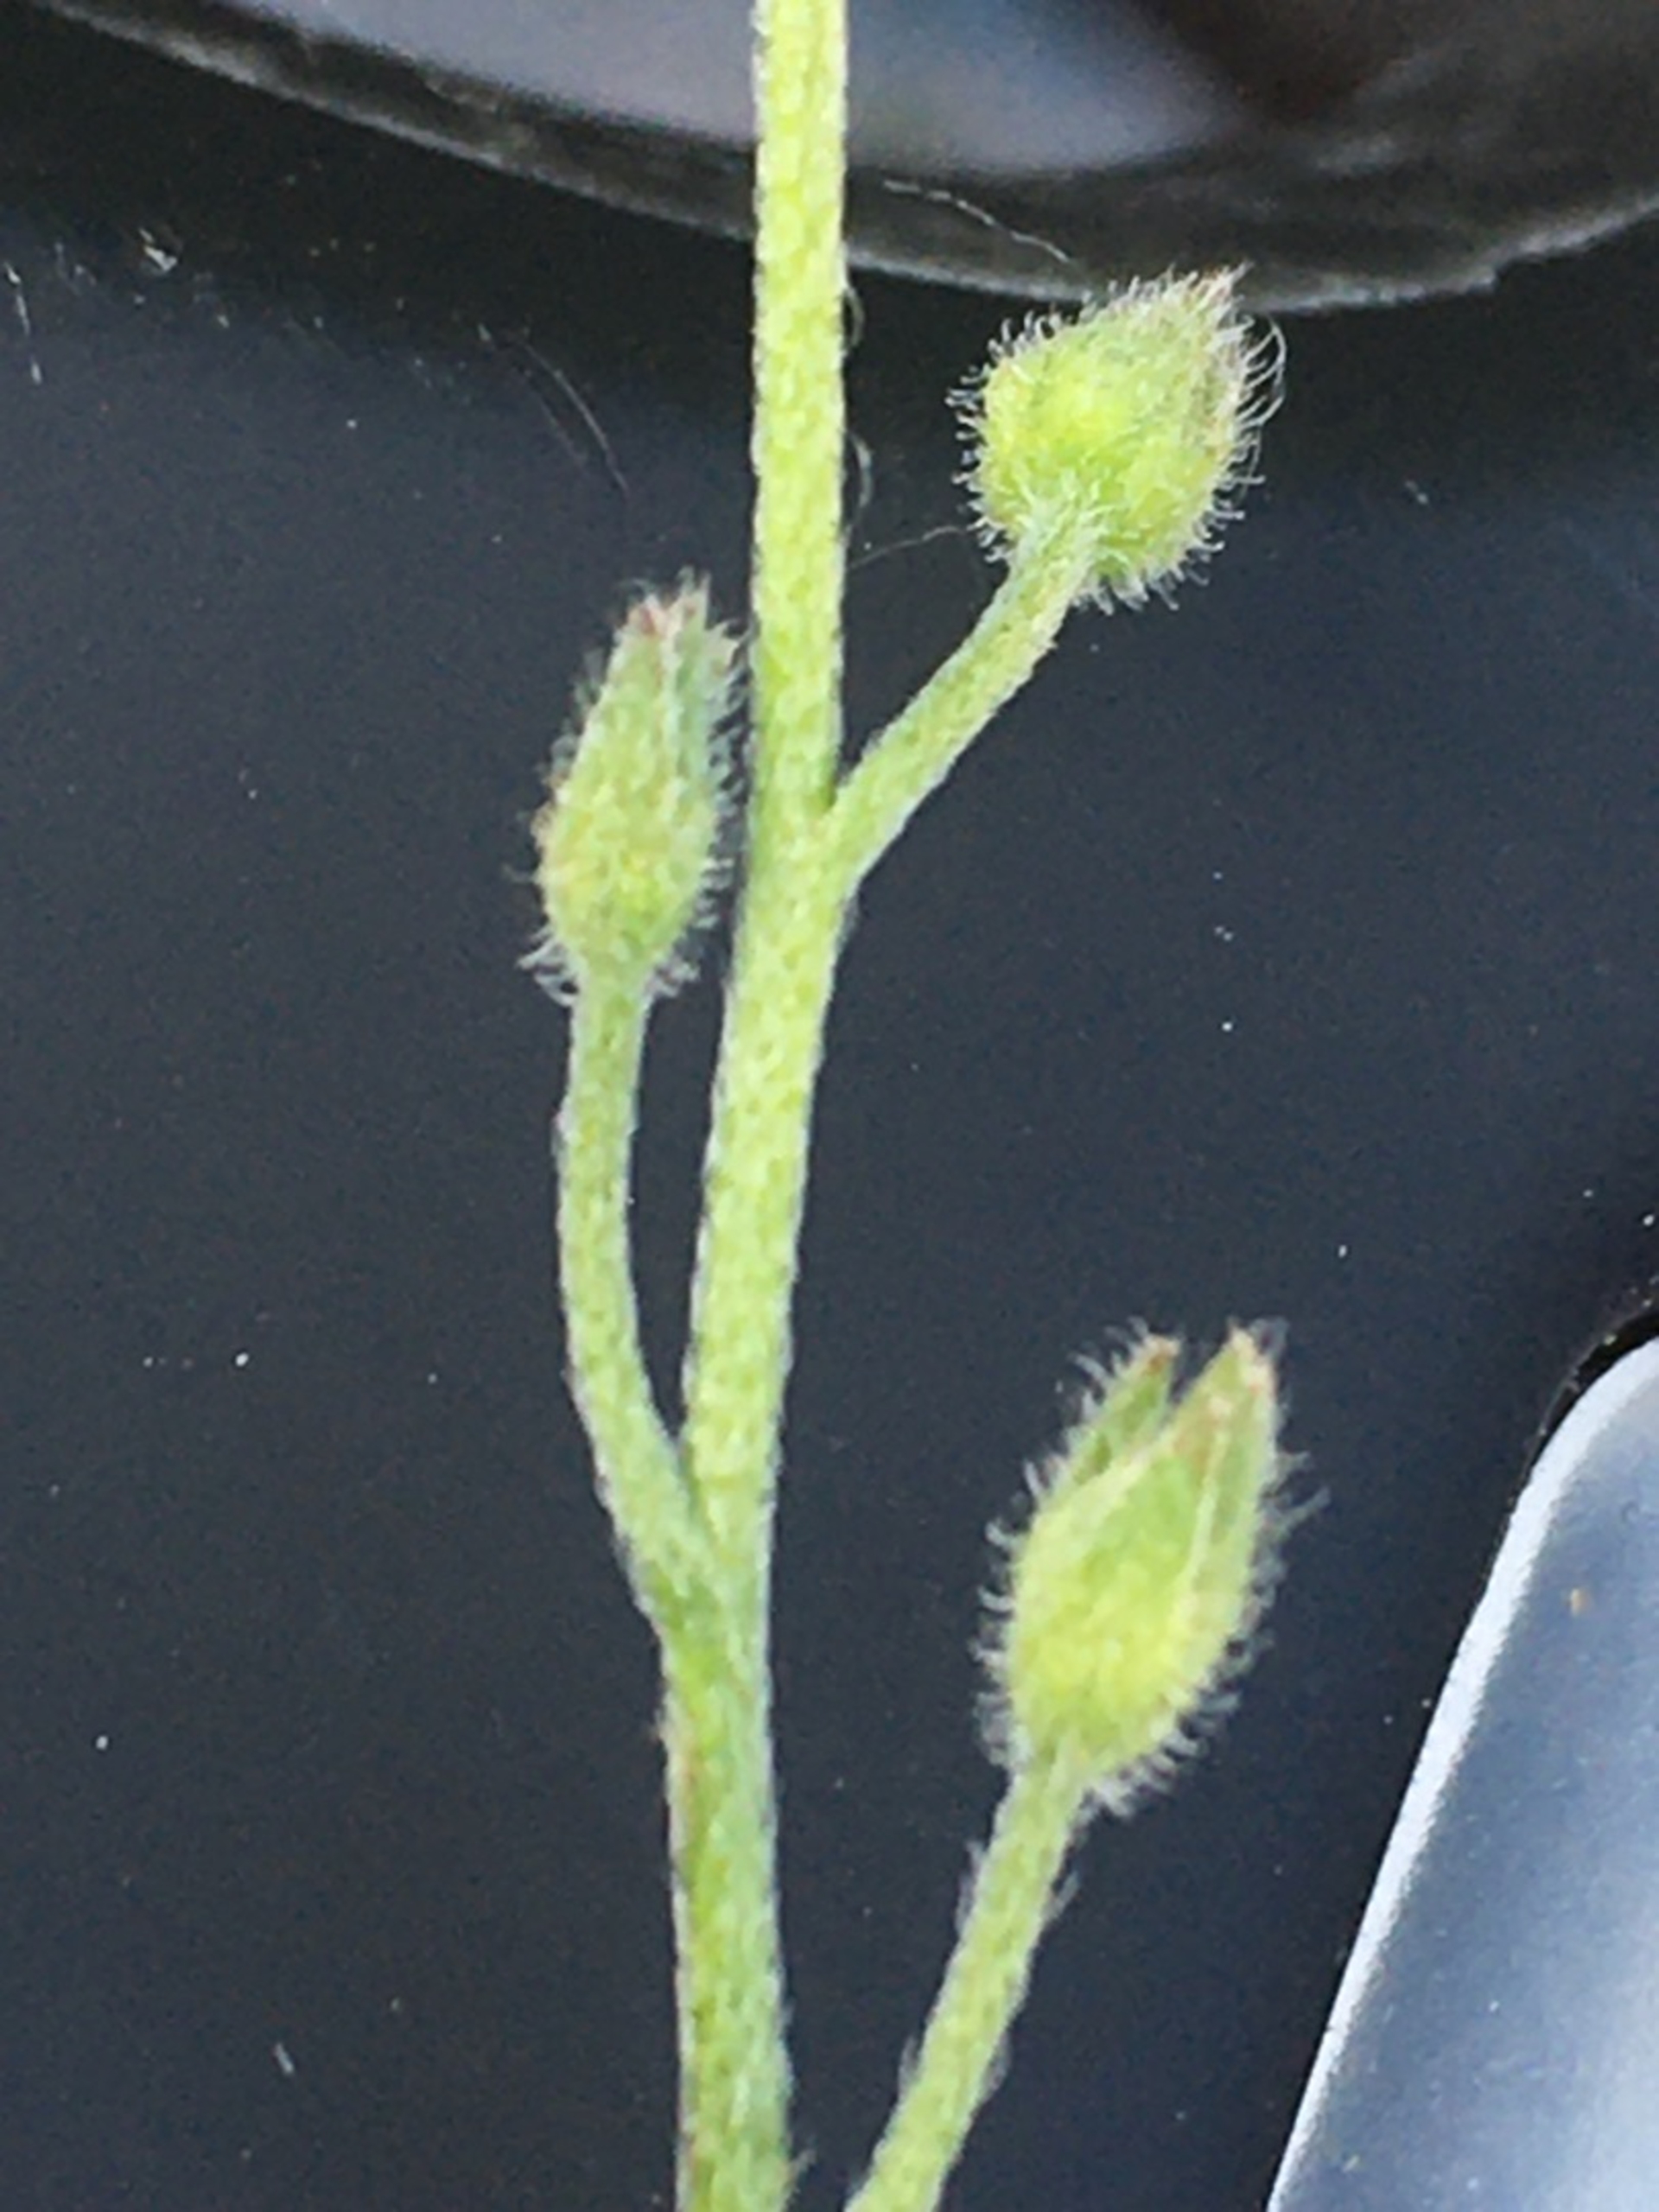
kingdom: Plantae
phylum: Tracheophyta
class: Magnoliopsida
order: Boraginales
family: Boraginaceae
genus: Myosotis
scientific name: Myosotis arvensis
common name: Mark-forglemmigej
